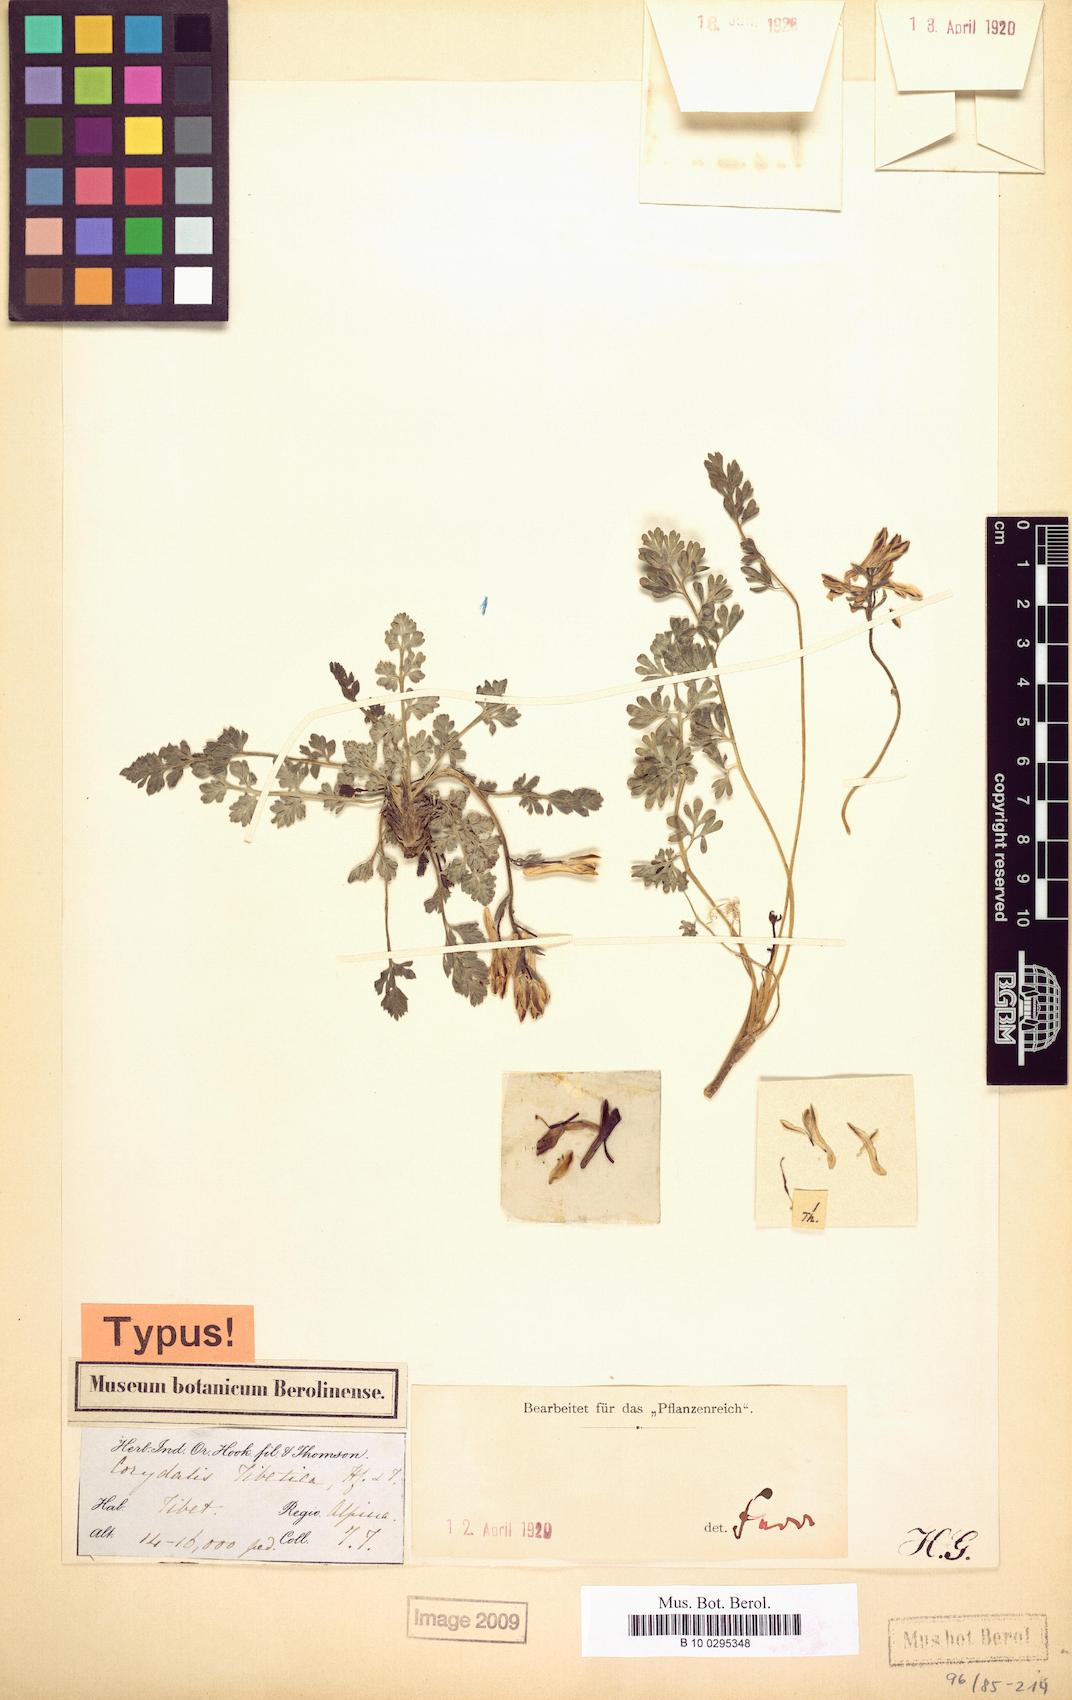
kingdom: Plantae
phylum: Tracheophyta
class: Magnoliopsida
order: Ranunculales
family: Papaveraceae
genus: Corydalis
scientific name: Corydalis tibetica
